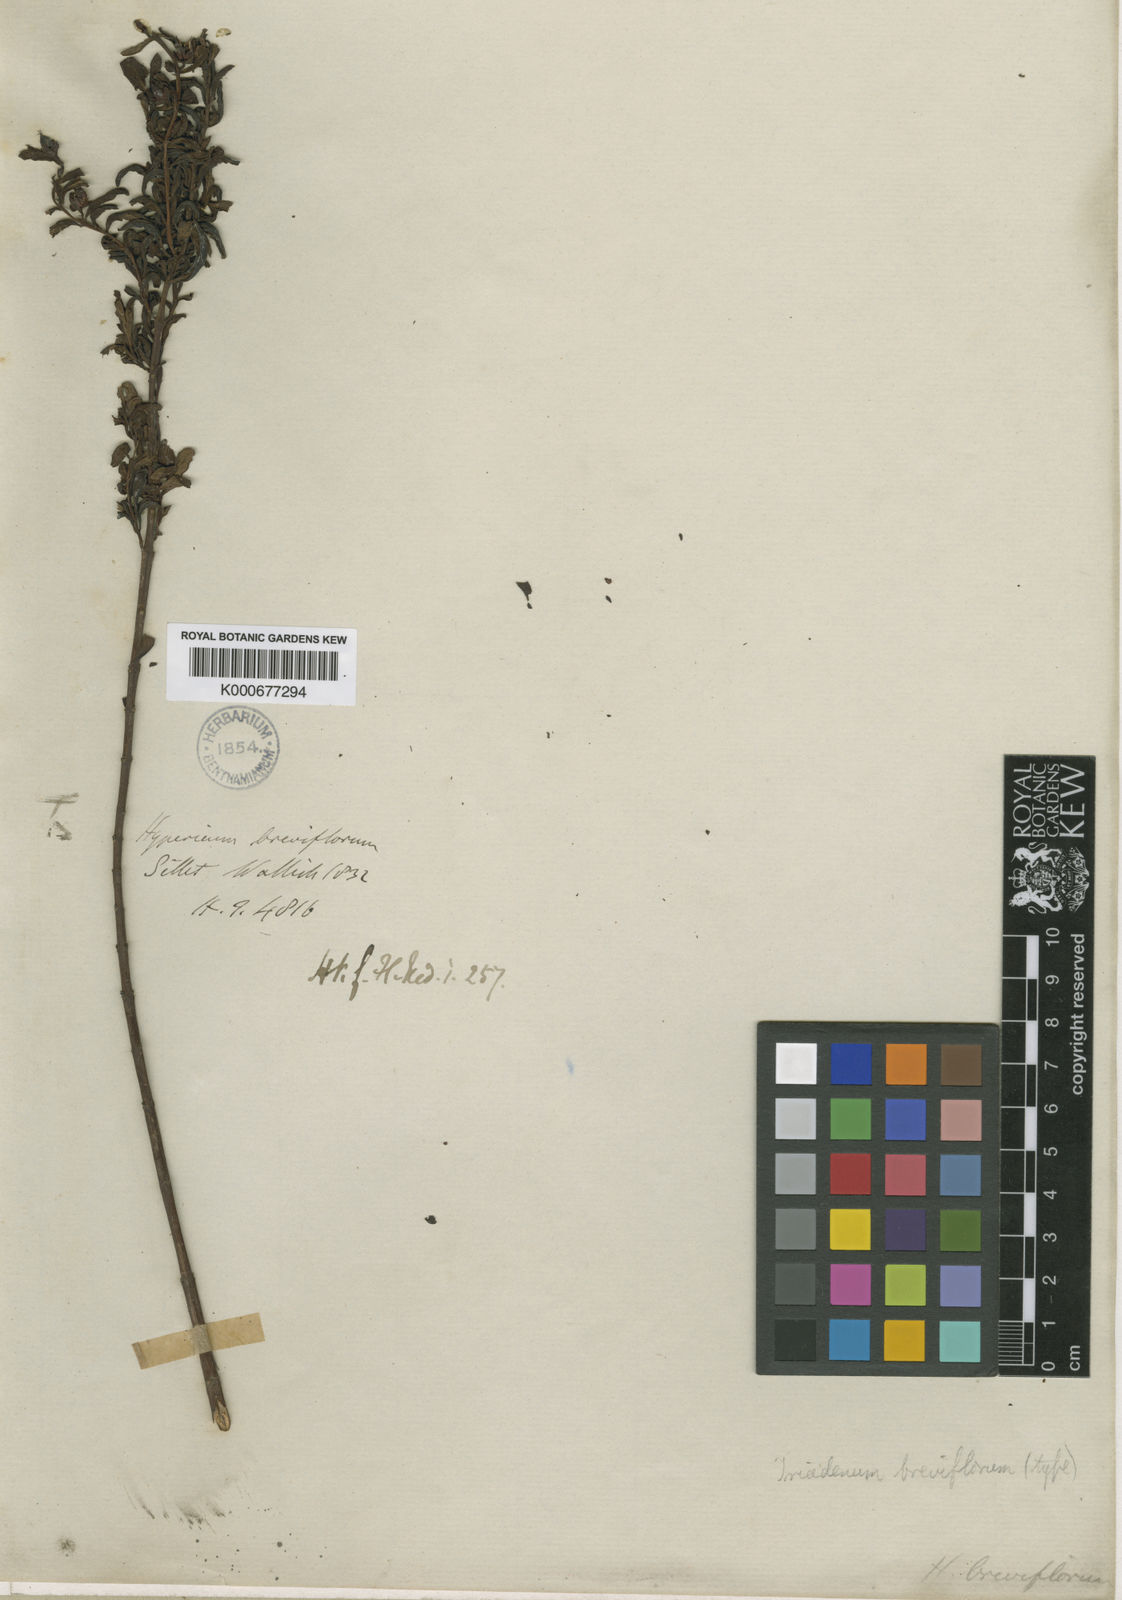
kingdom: Plantae
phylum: Tracheophyta
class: Magnoliopsida
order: Malpighiales
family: Hypericaceae
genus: Triadenum
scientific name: Triadenum breviflorum
